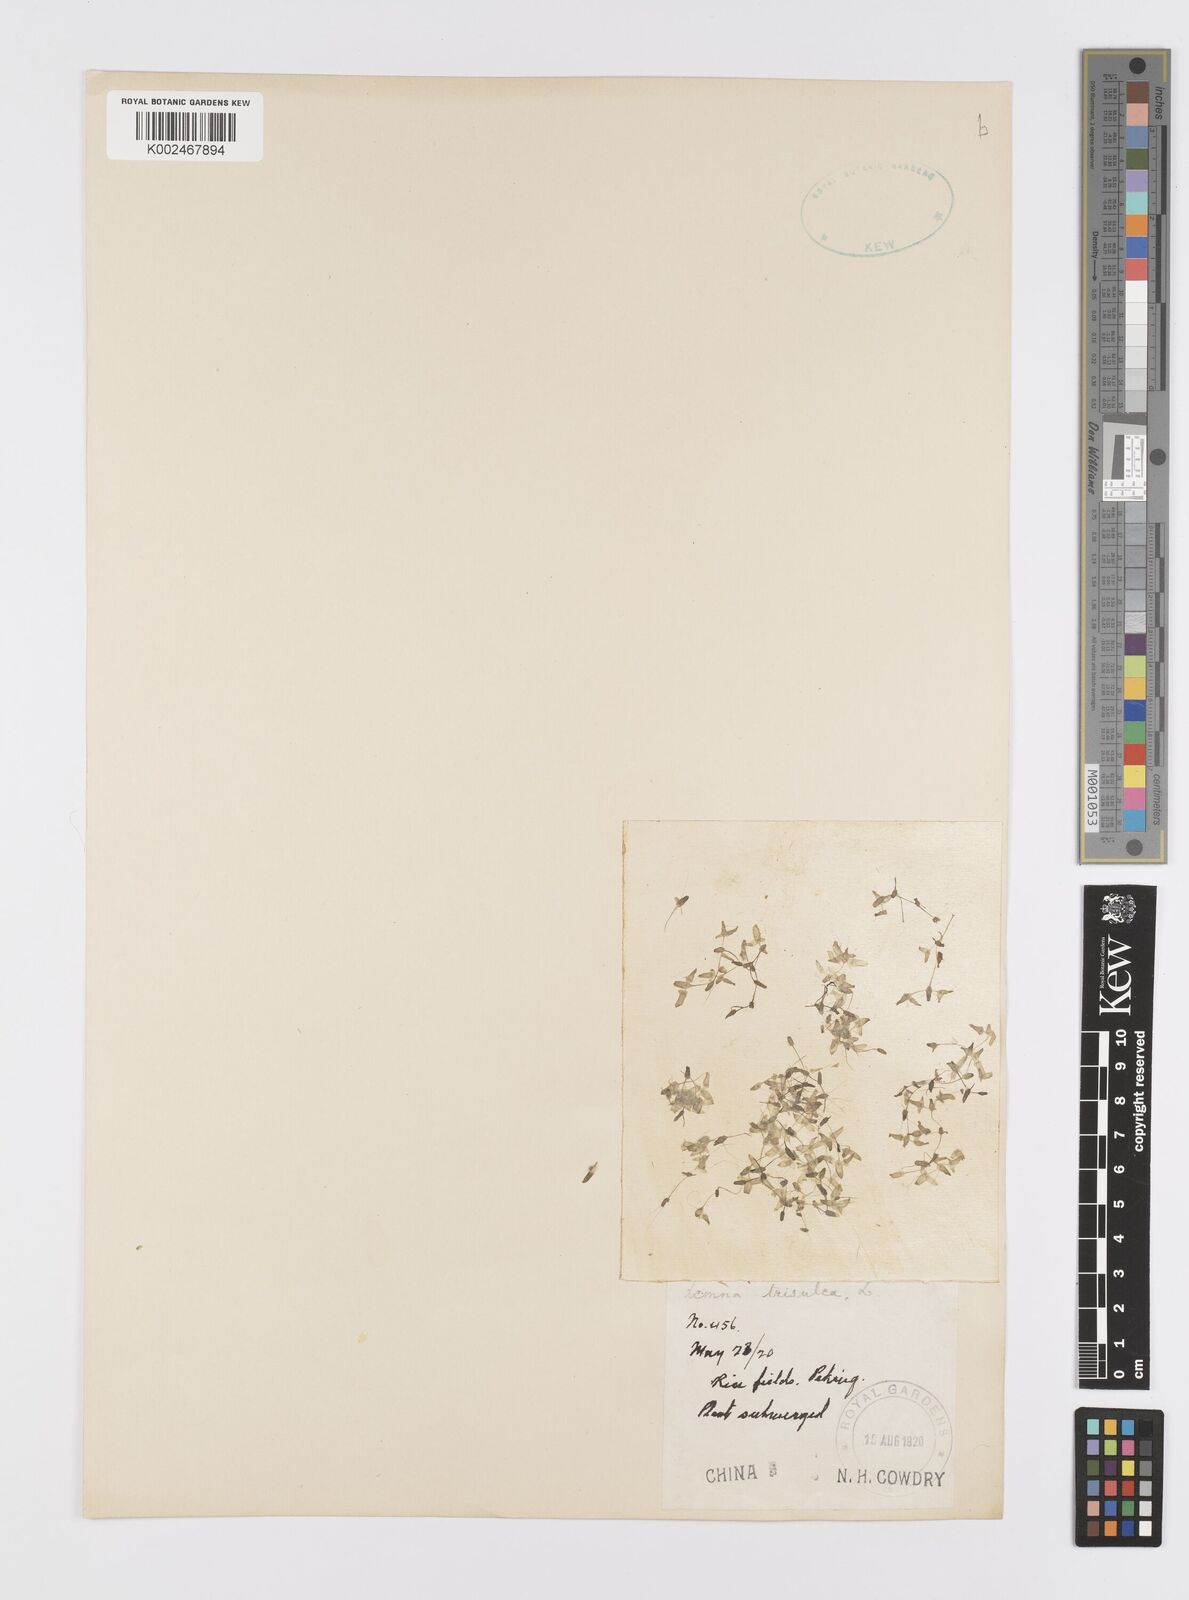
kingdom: Plantae
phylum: Tracheophyta
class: Liliopsida
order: Alismatales
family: Araceae
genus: Lemna
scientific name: Lemna trisulca
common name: Ivy-leaved duckweed
